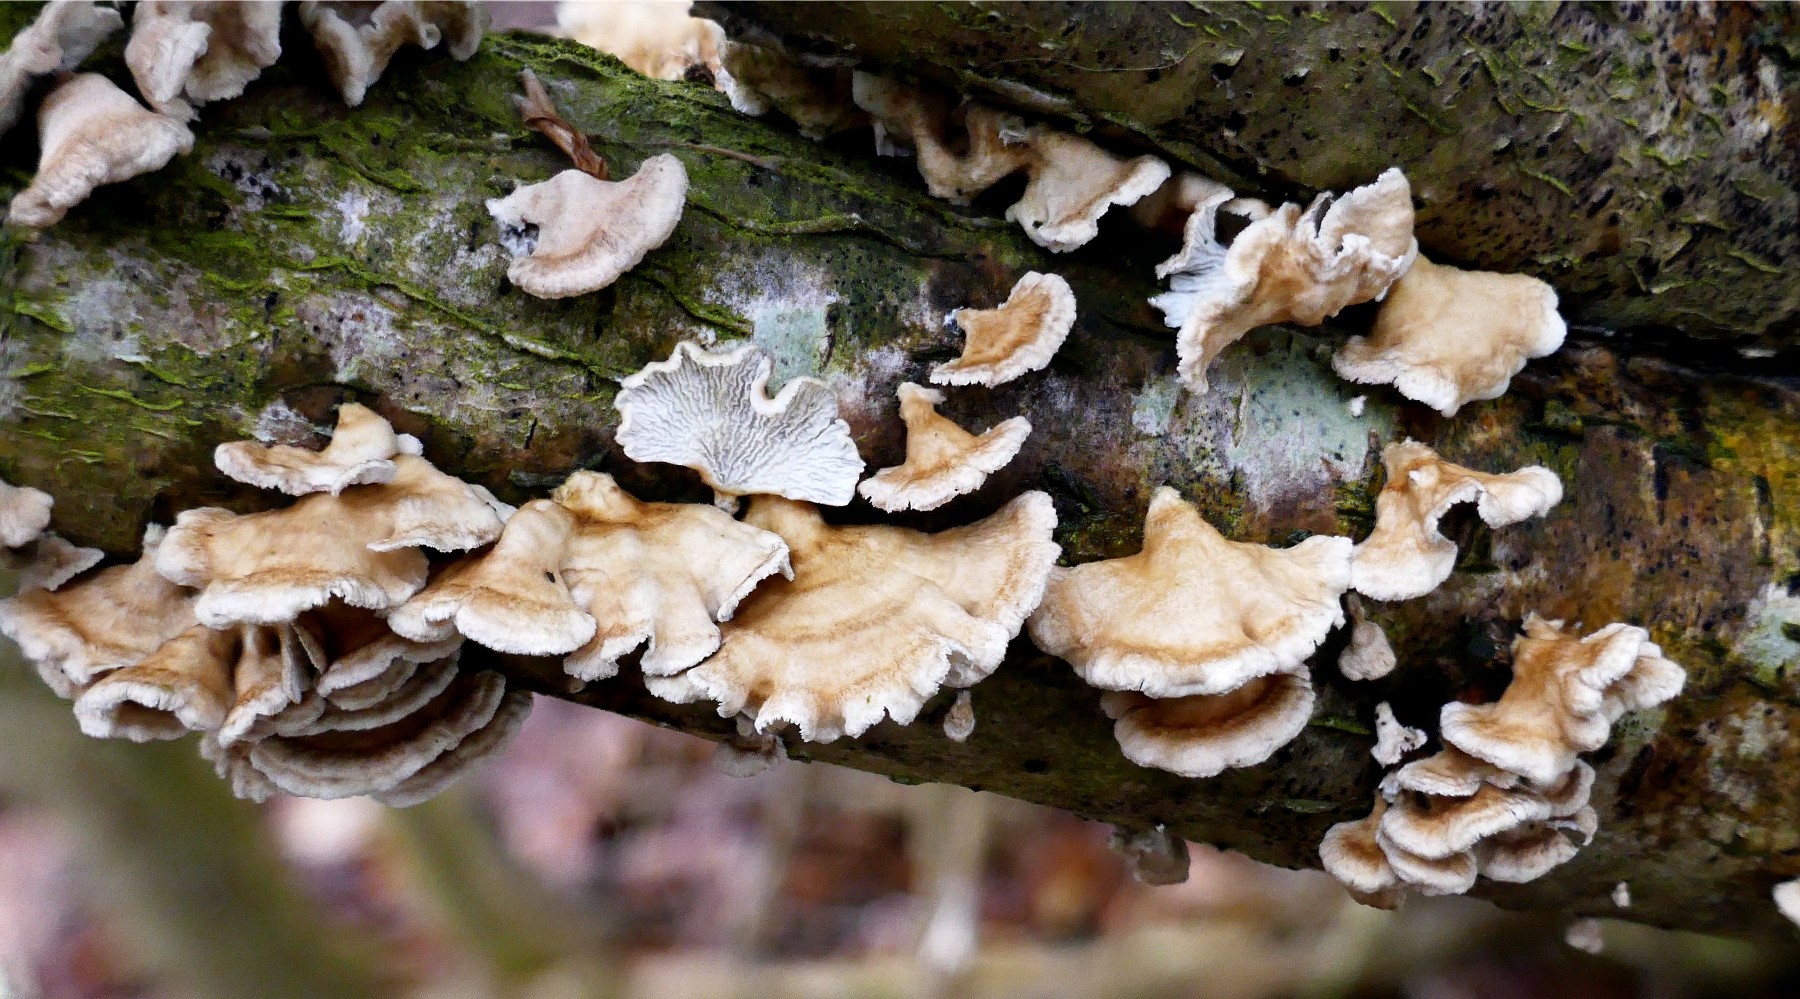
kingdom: Fungi
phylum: Basidiomycota
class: Agaricomycetes
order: Amylocorticiales
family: Amylocorticiaceae
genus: Plicaturopsis
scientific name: Plicaturopsis crispa
